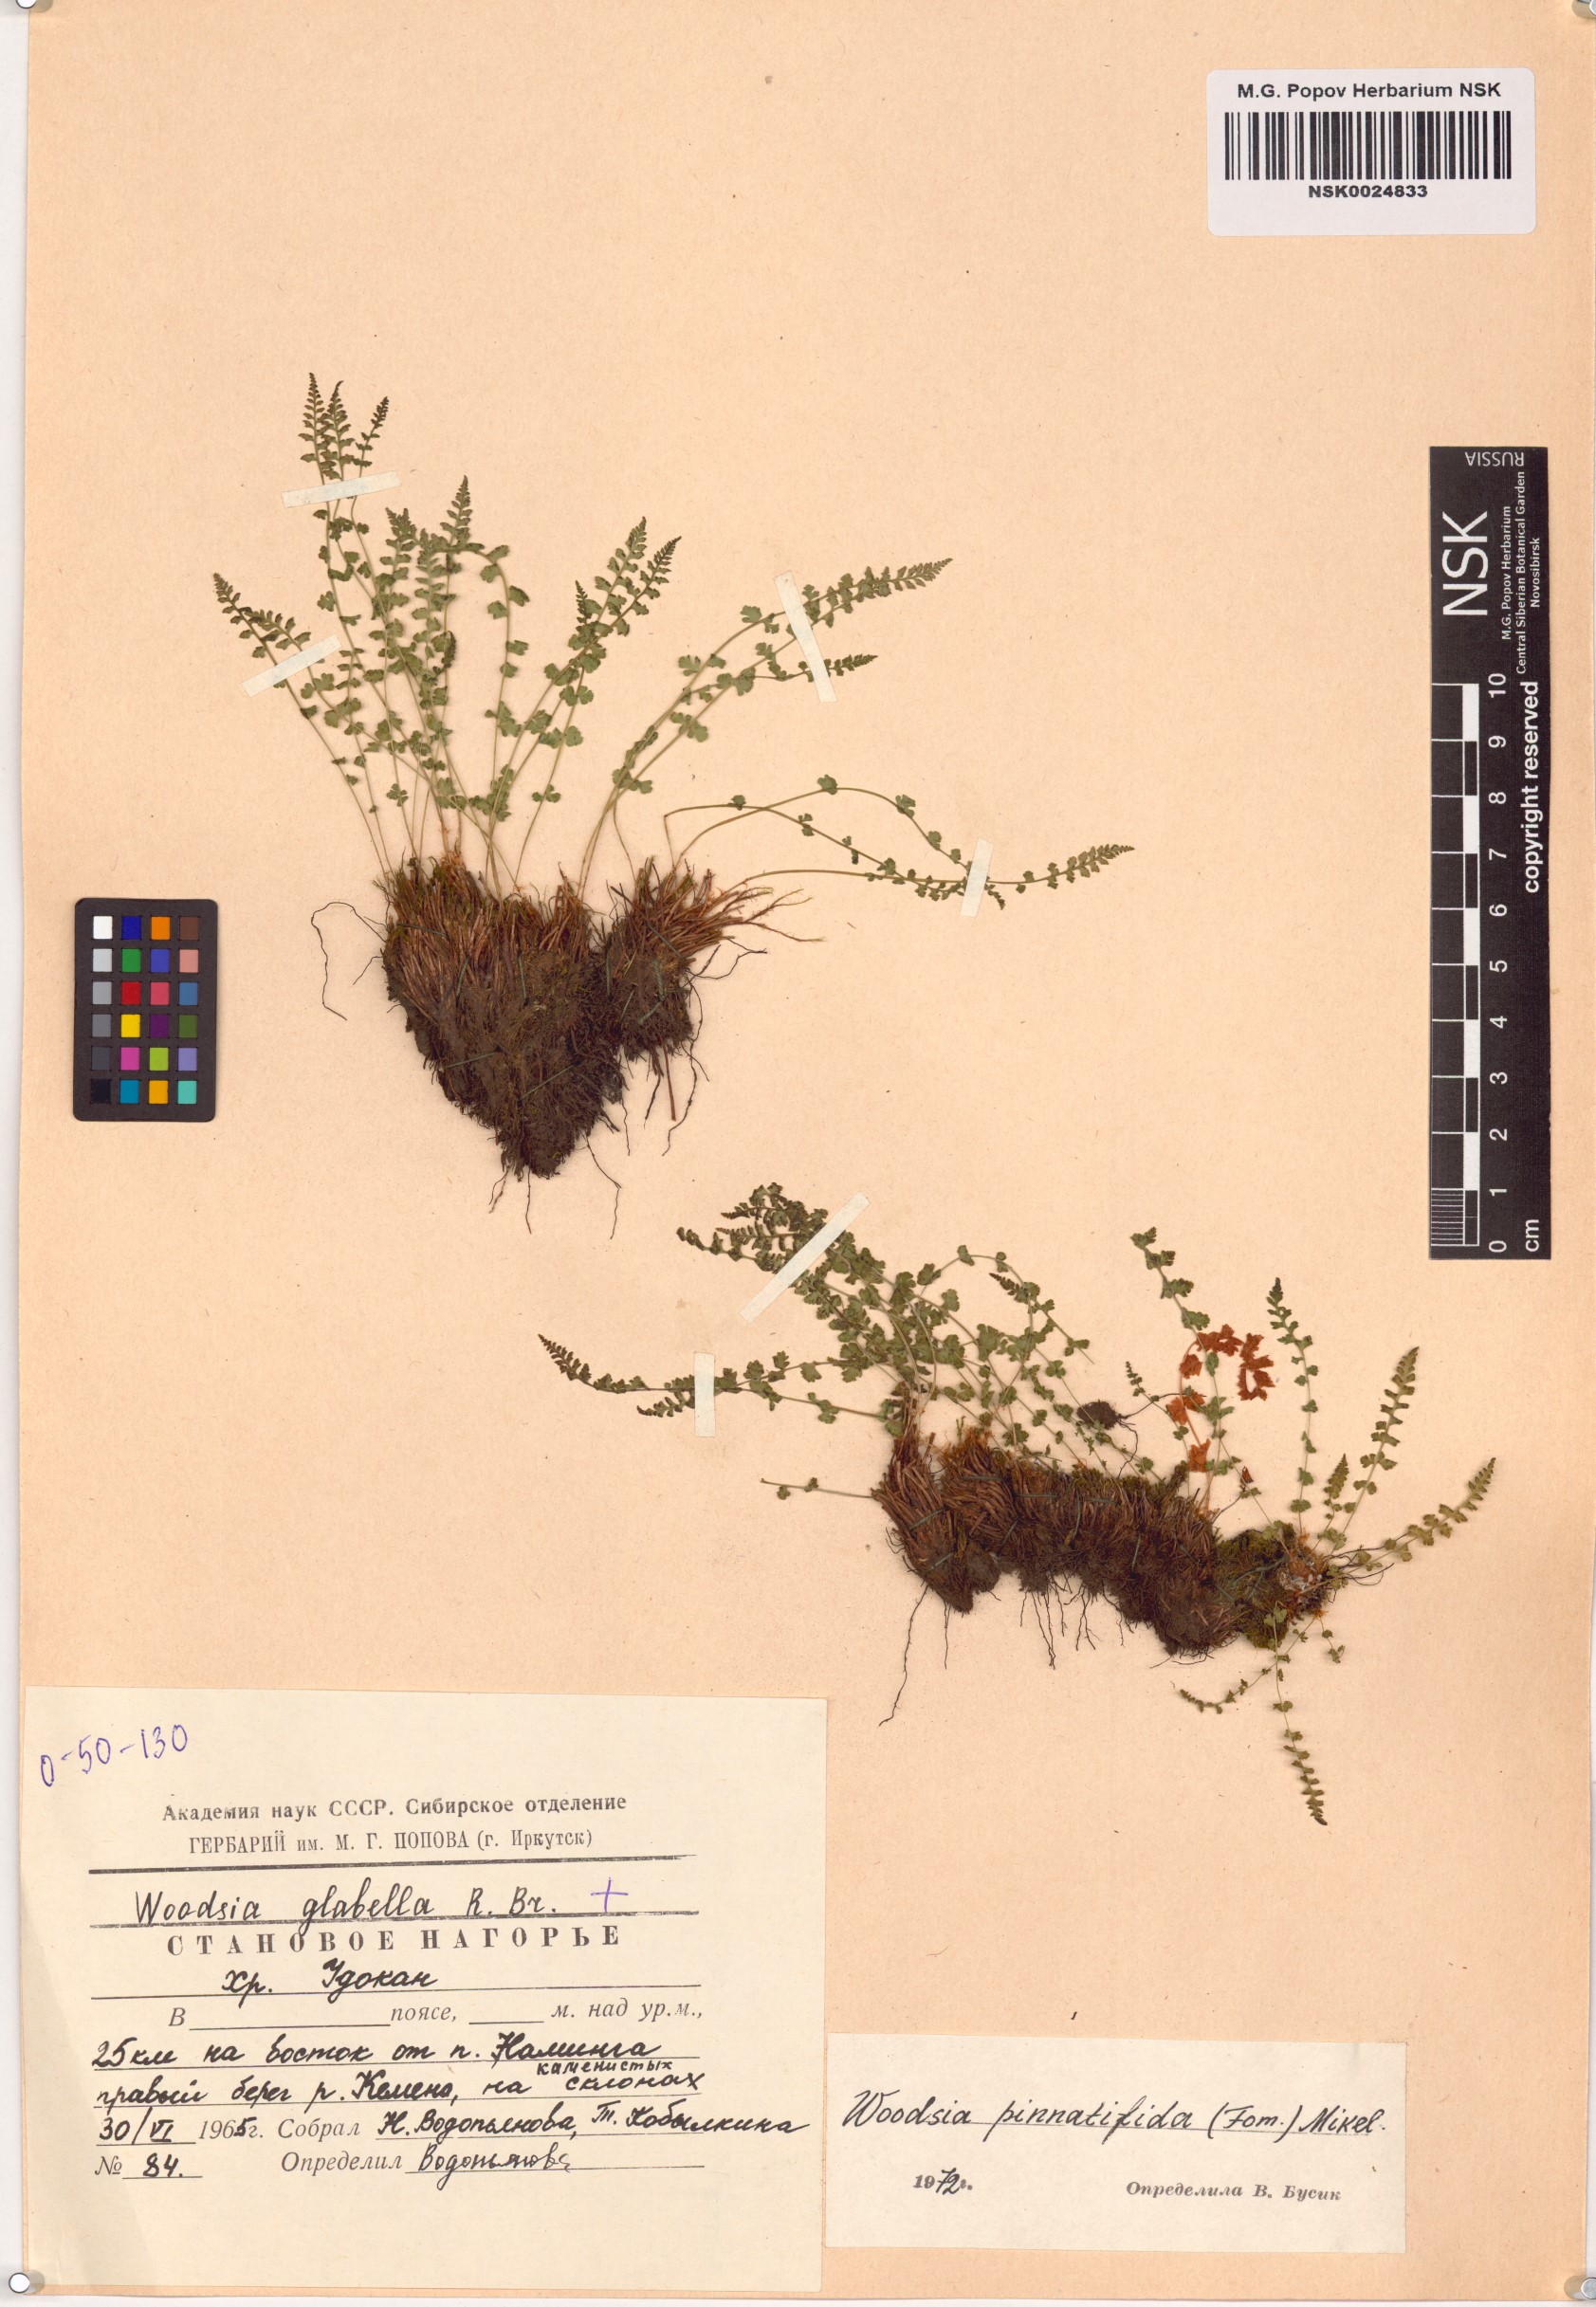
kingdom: Plantae
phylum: Tracheophyta
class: Polypodiopsida
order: Polypodiales
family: Woodsiaceae
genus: Woodsia
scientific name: Woodsia pulchella
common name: Graceful woodsia
